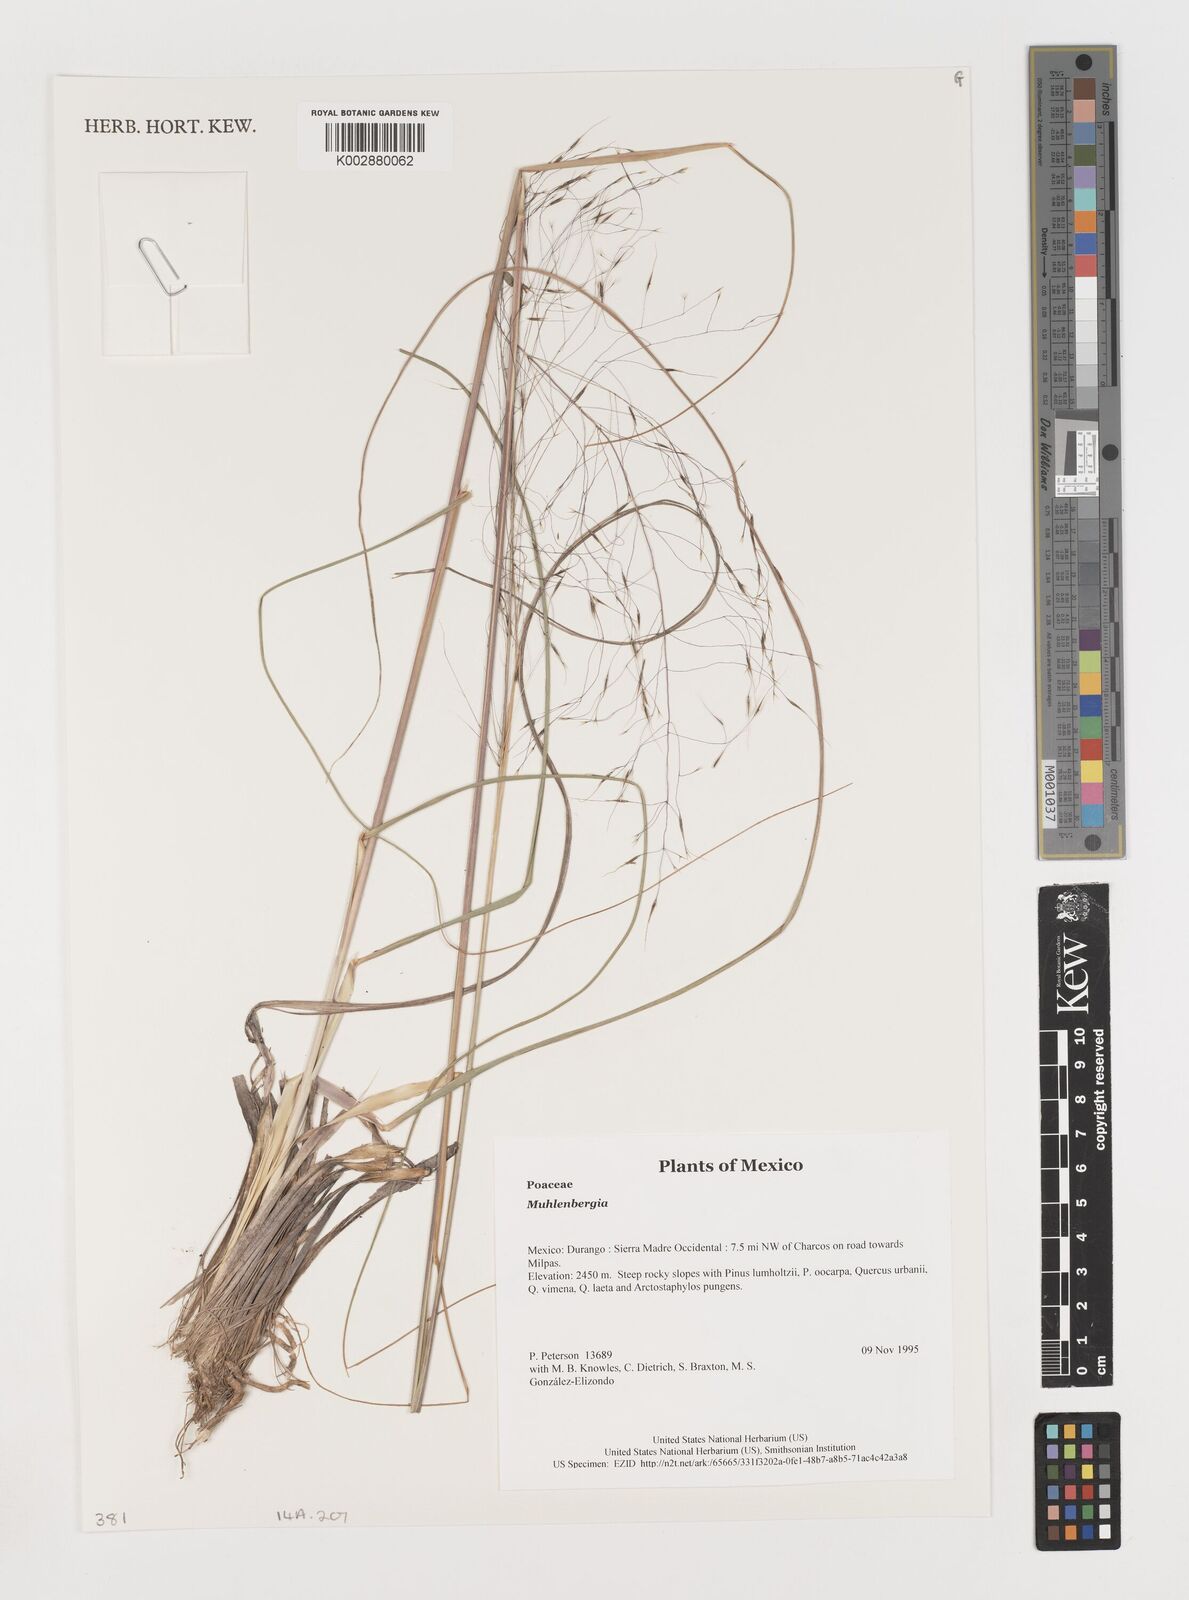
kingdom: Plantae
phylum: Tracheophyta
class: Liliopsida
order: Poales
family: Poaceae
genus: Muhlenbergia
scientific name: Muhlenbergia
